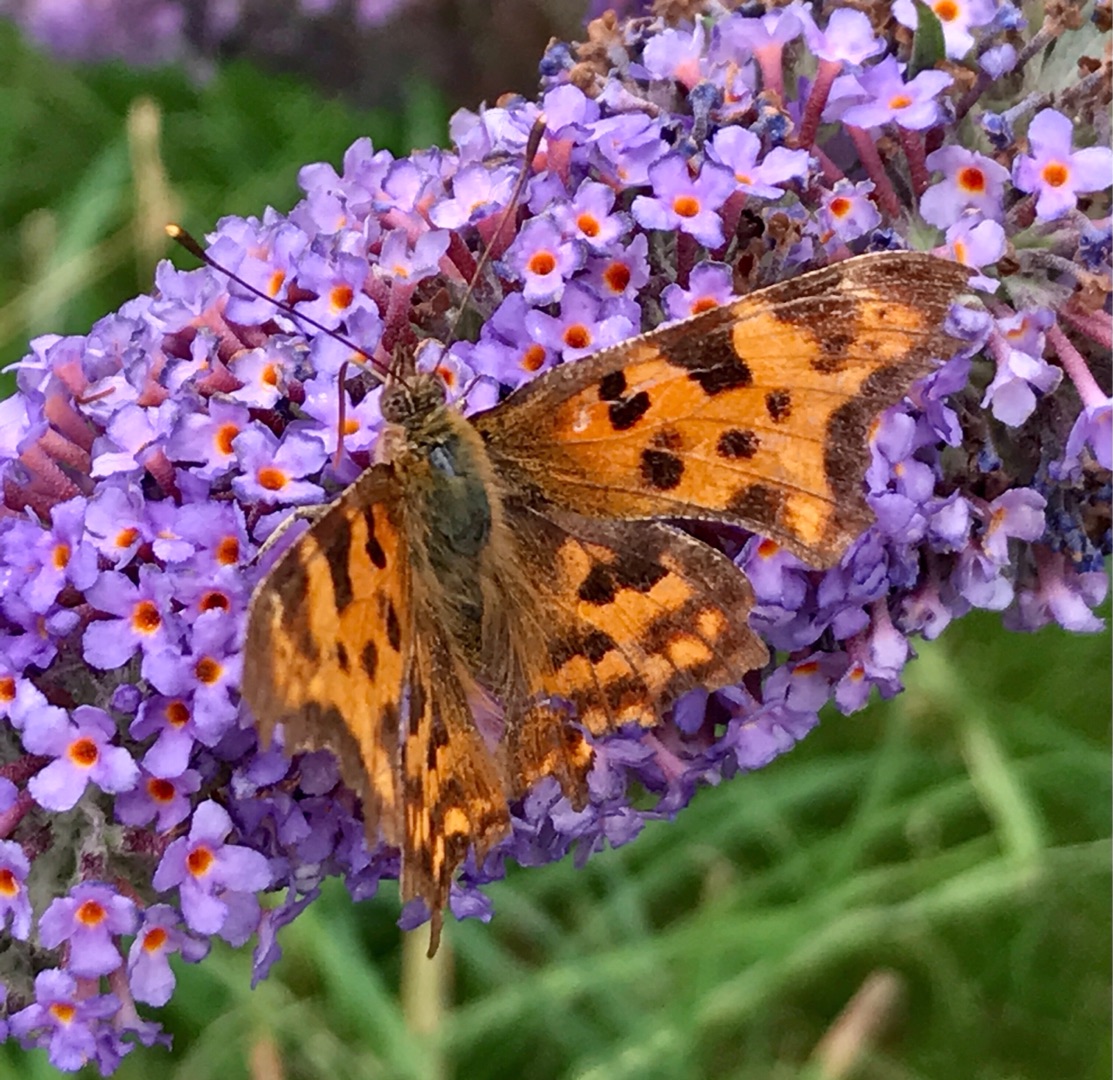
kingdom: Animalia
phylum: Arthropoda
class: Insecta
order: Lepidoptera
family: Nymphalidae
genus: Polygonia
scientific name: Polygonia c-album
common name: Det hvide C
